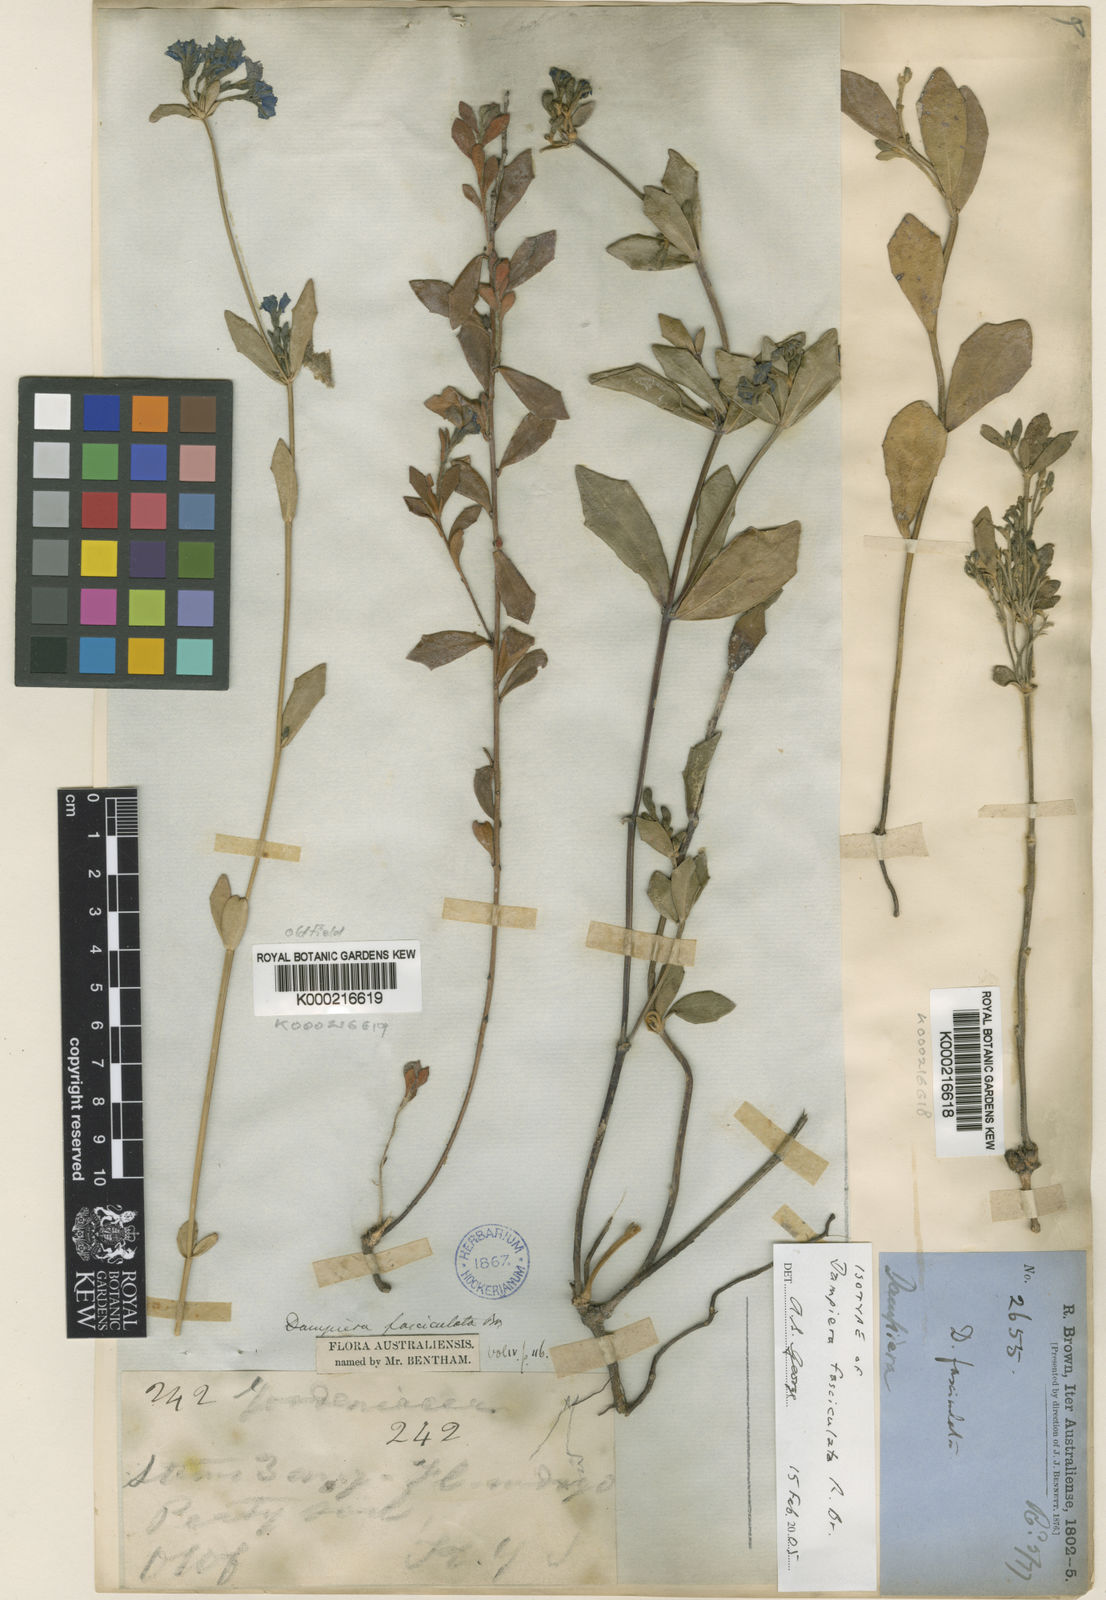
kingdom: Plantae
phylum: Tracheophyta
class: Magnoliopsida
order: Asterales
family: Goodeniaceae
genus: Dampiera
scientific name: Dampiera fasciculata
